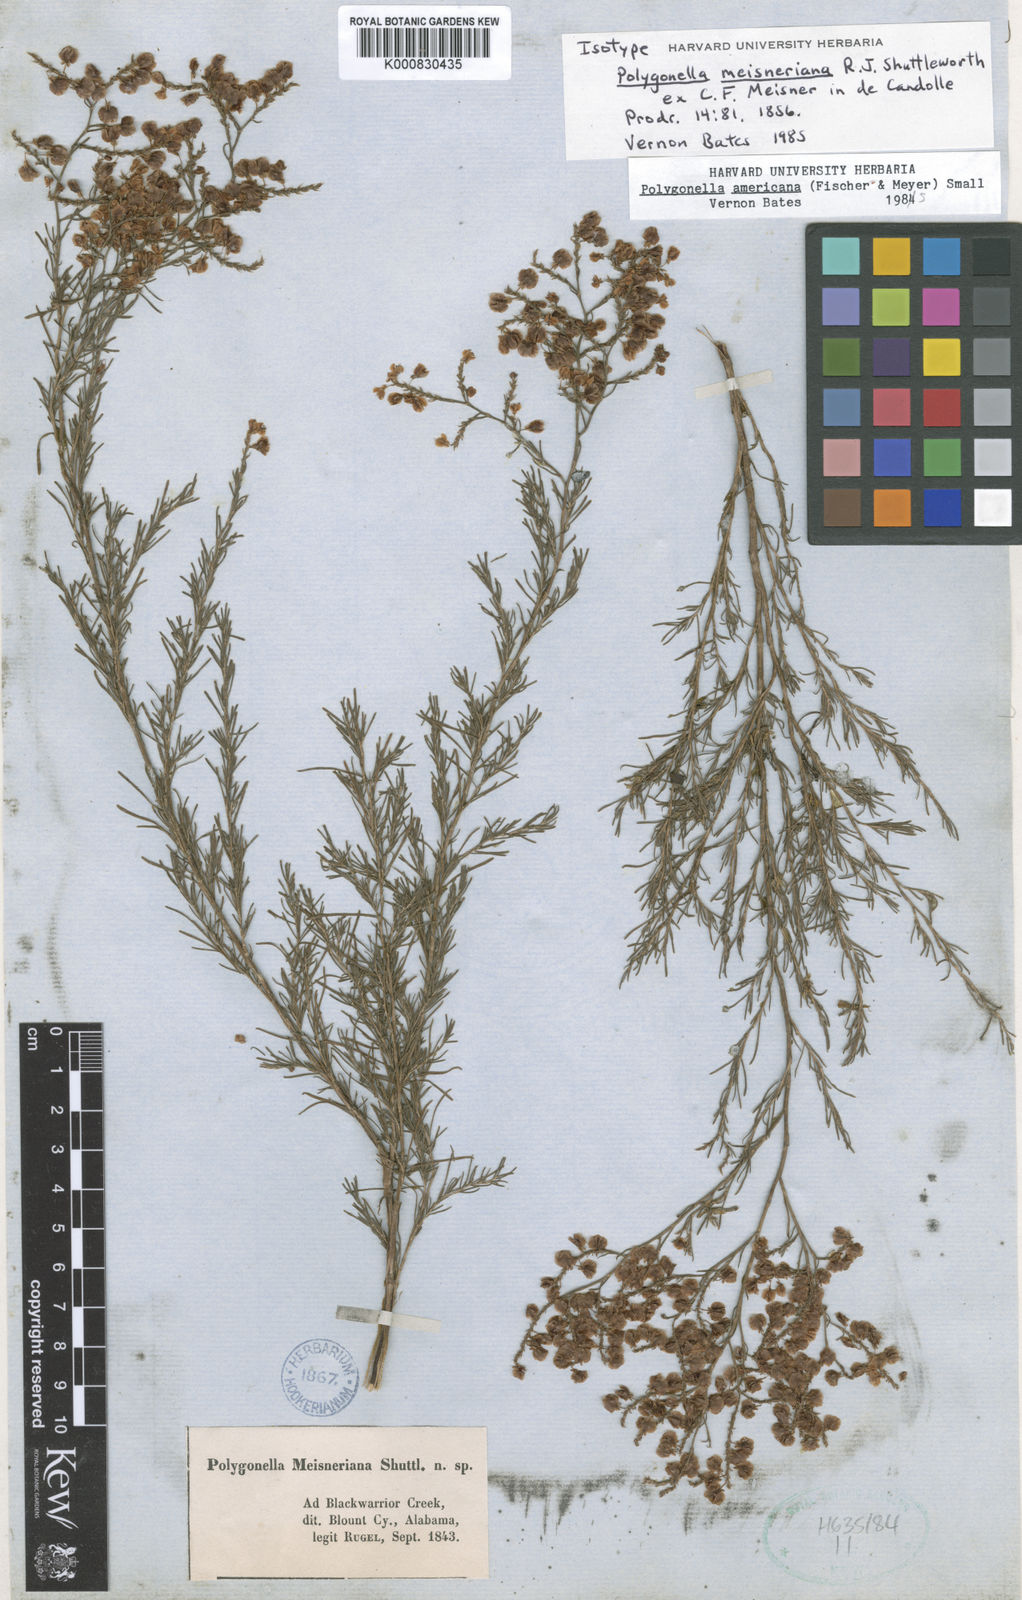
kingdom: Plantae
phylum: Tracheophyta
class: Magnoliopsida
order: Caryophyllales
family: Polygonaceae
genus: Polygonella
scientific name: Polygonella americana
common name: Southern jointweed
